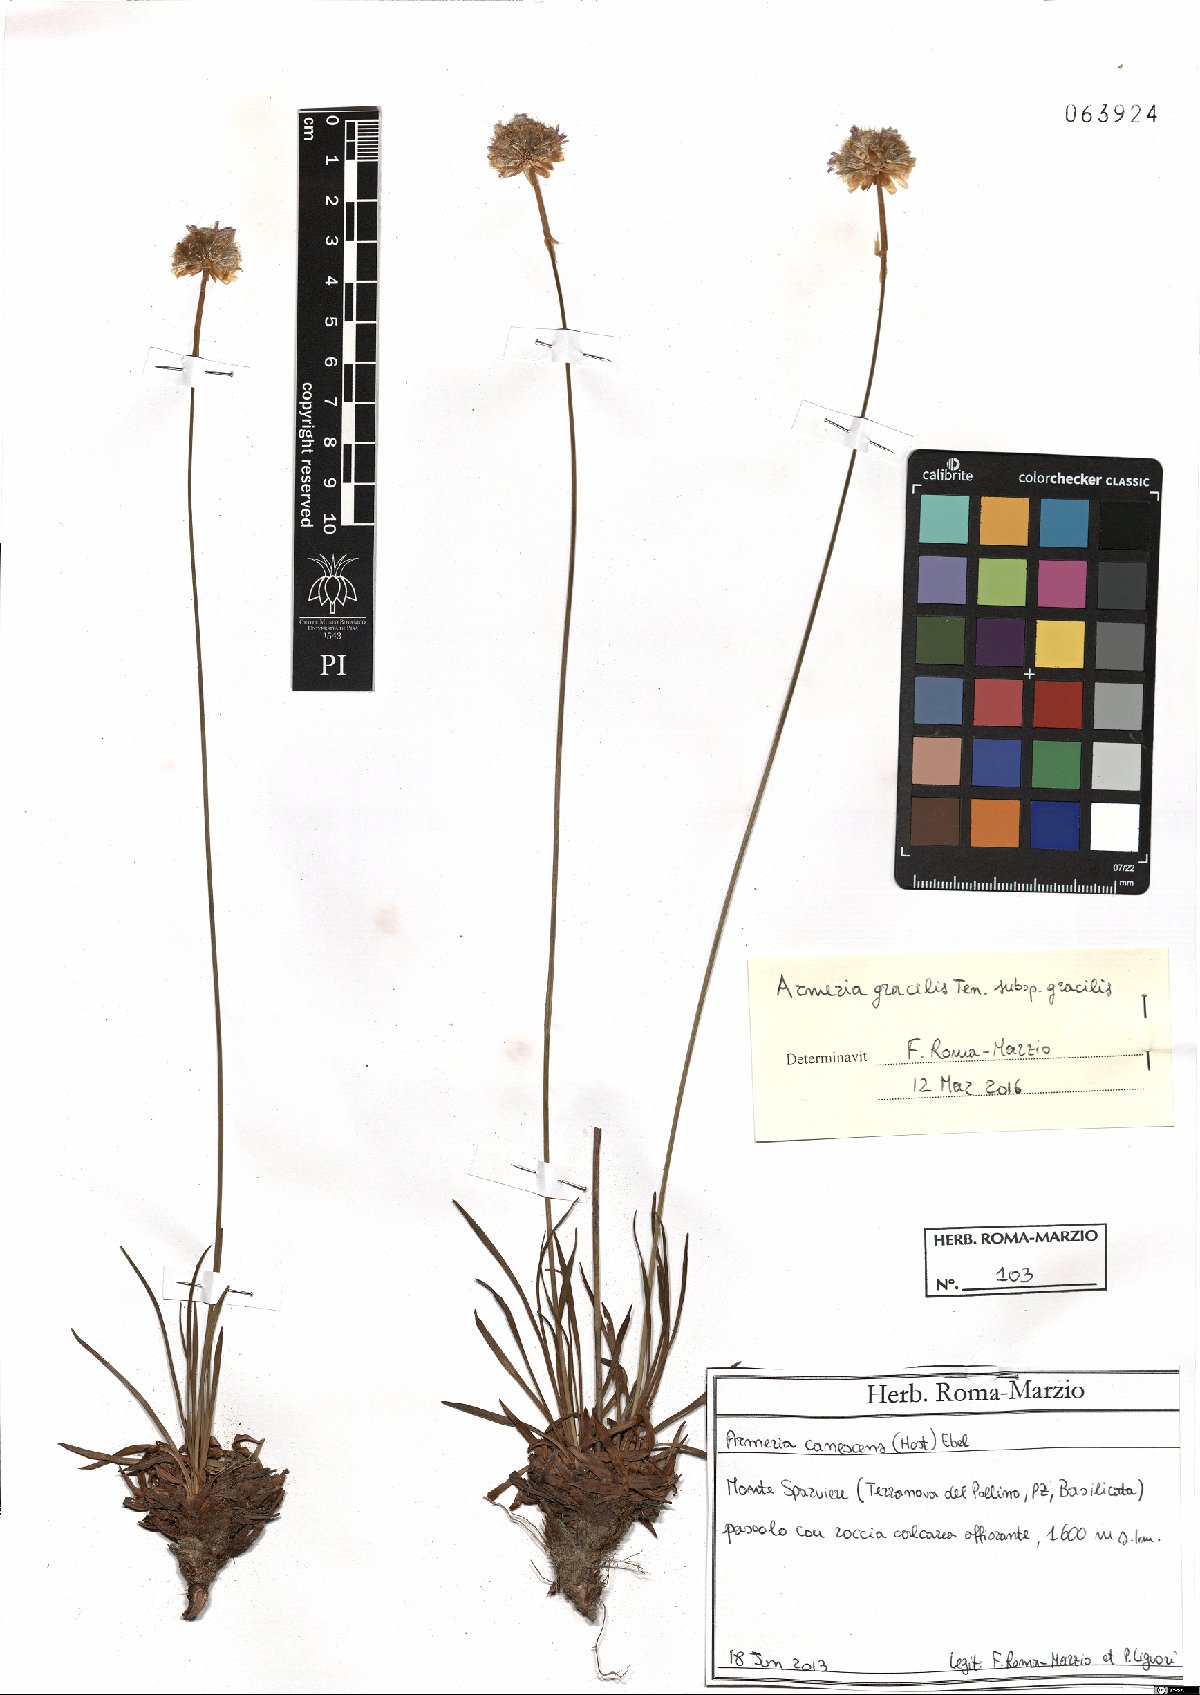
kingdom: Plantae
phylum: Tracheophyta
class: Magnoliopsida
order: Caryophyllales
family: Plumbaginaceae
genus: Armeria
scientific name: Armeria nebrodensis
